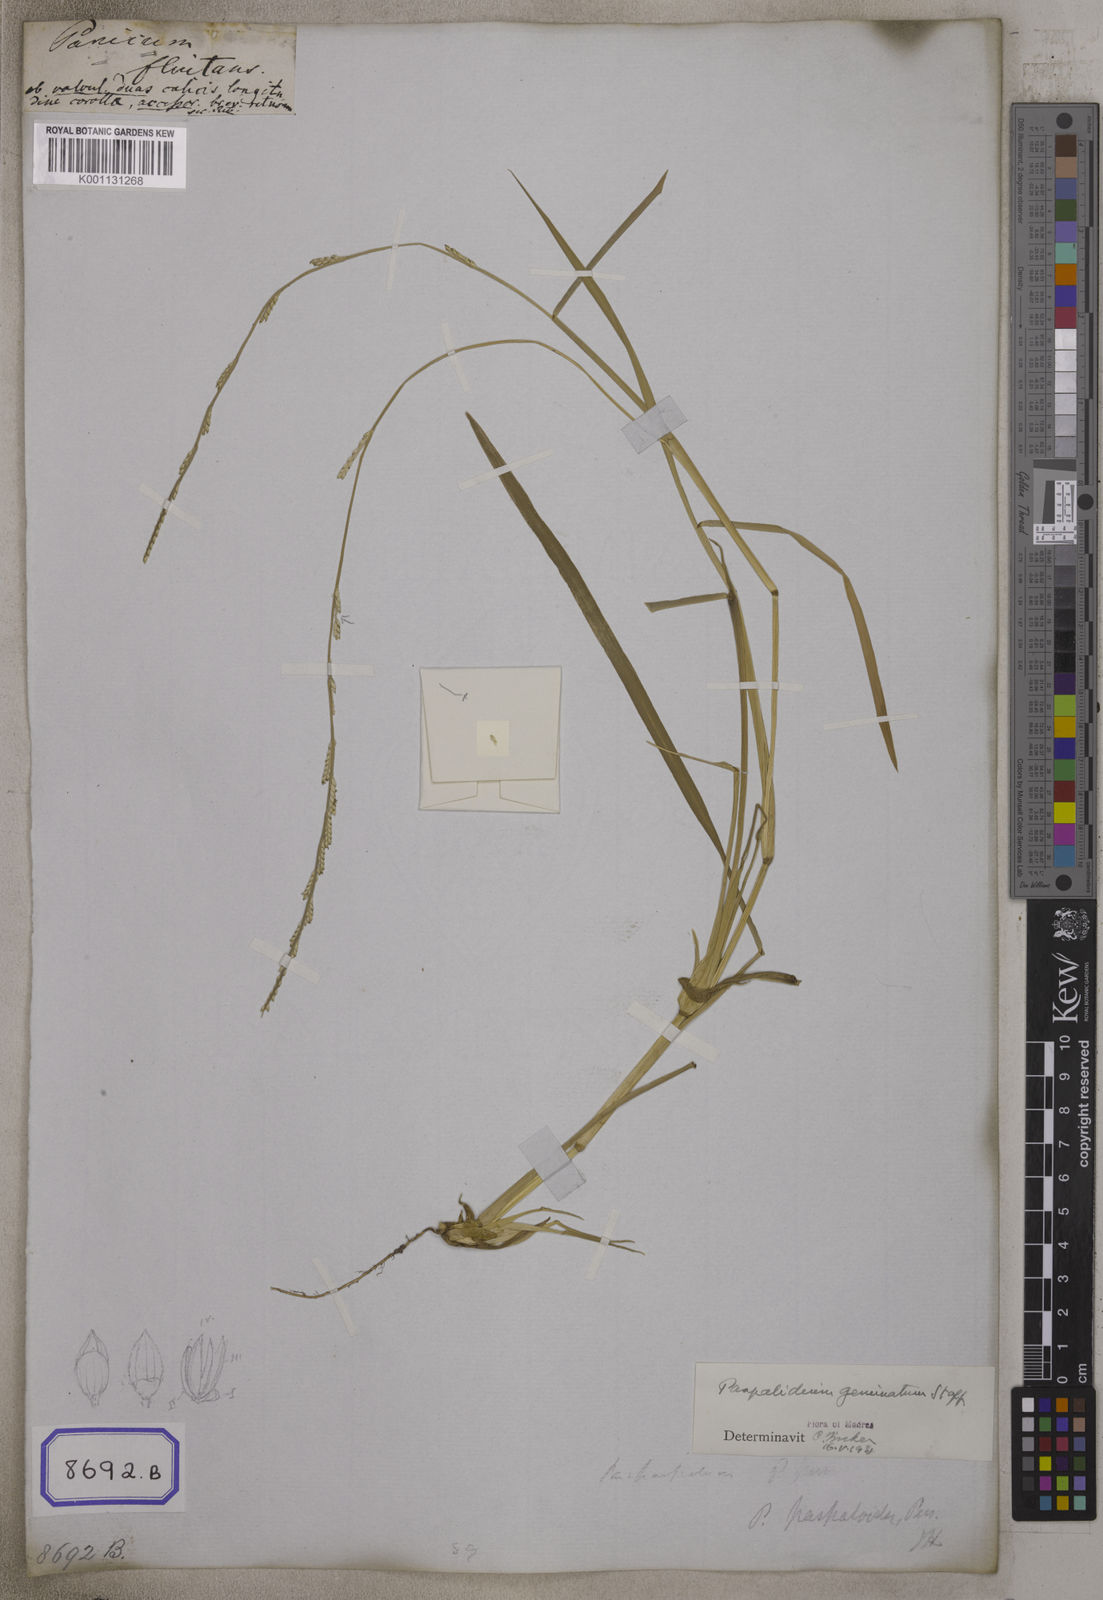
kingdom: Plantae
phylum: Tracheophyta
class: Liliopsida
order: Poales
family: Poaceae
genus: Setaria
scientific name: Setaria flavida
